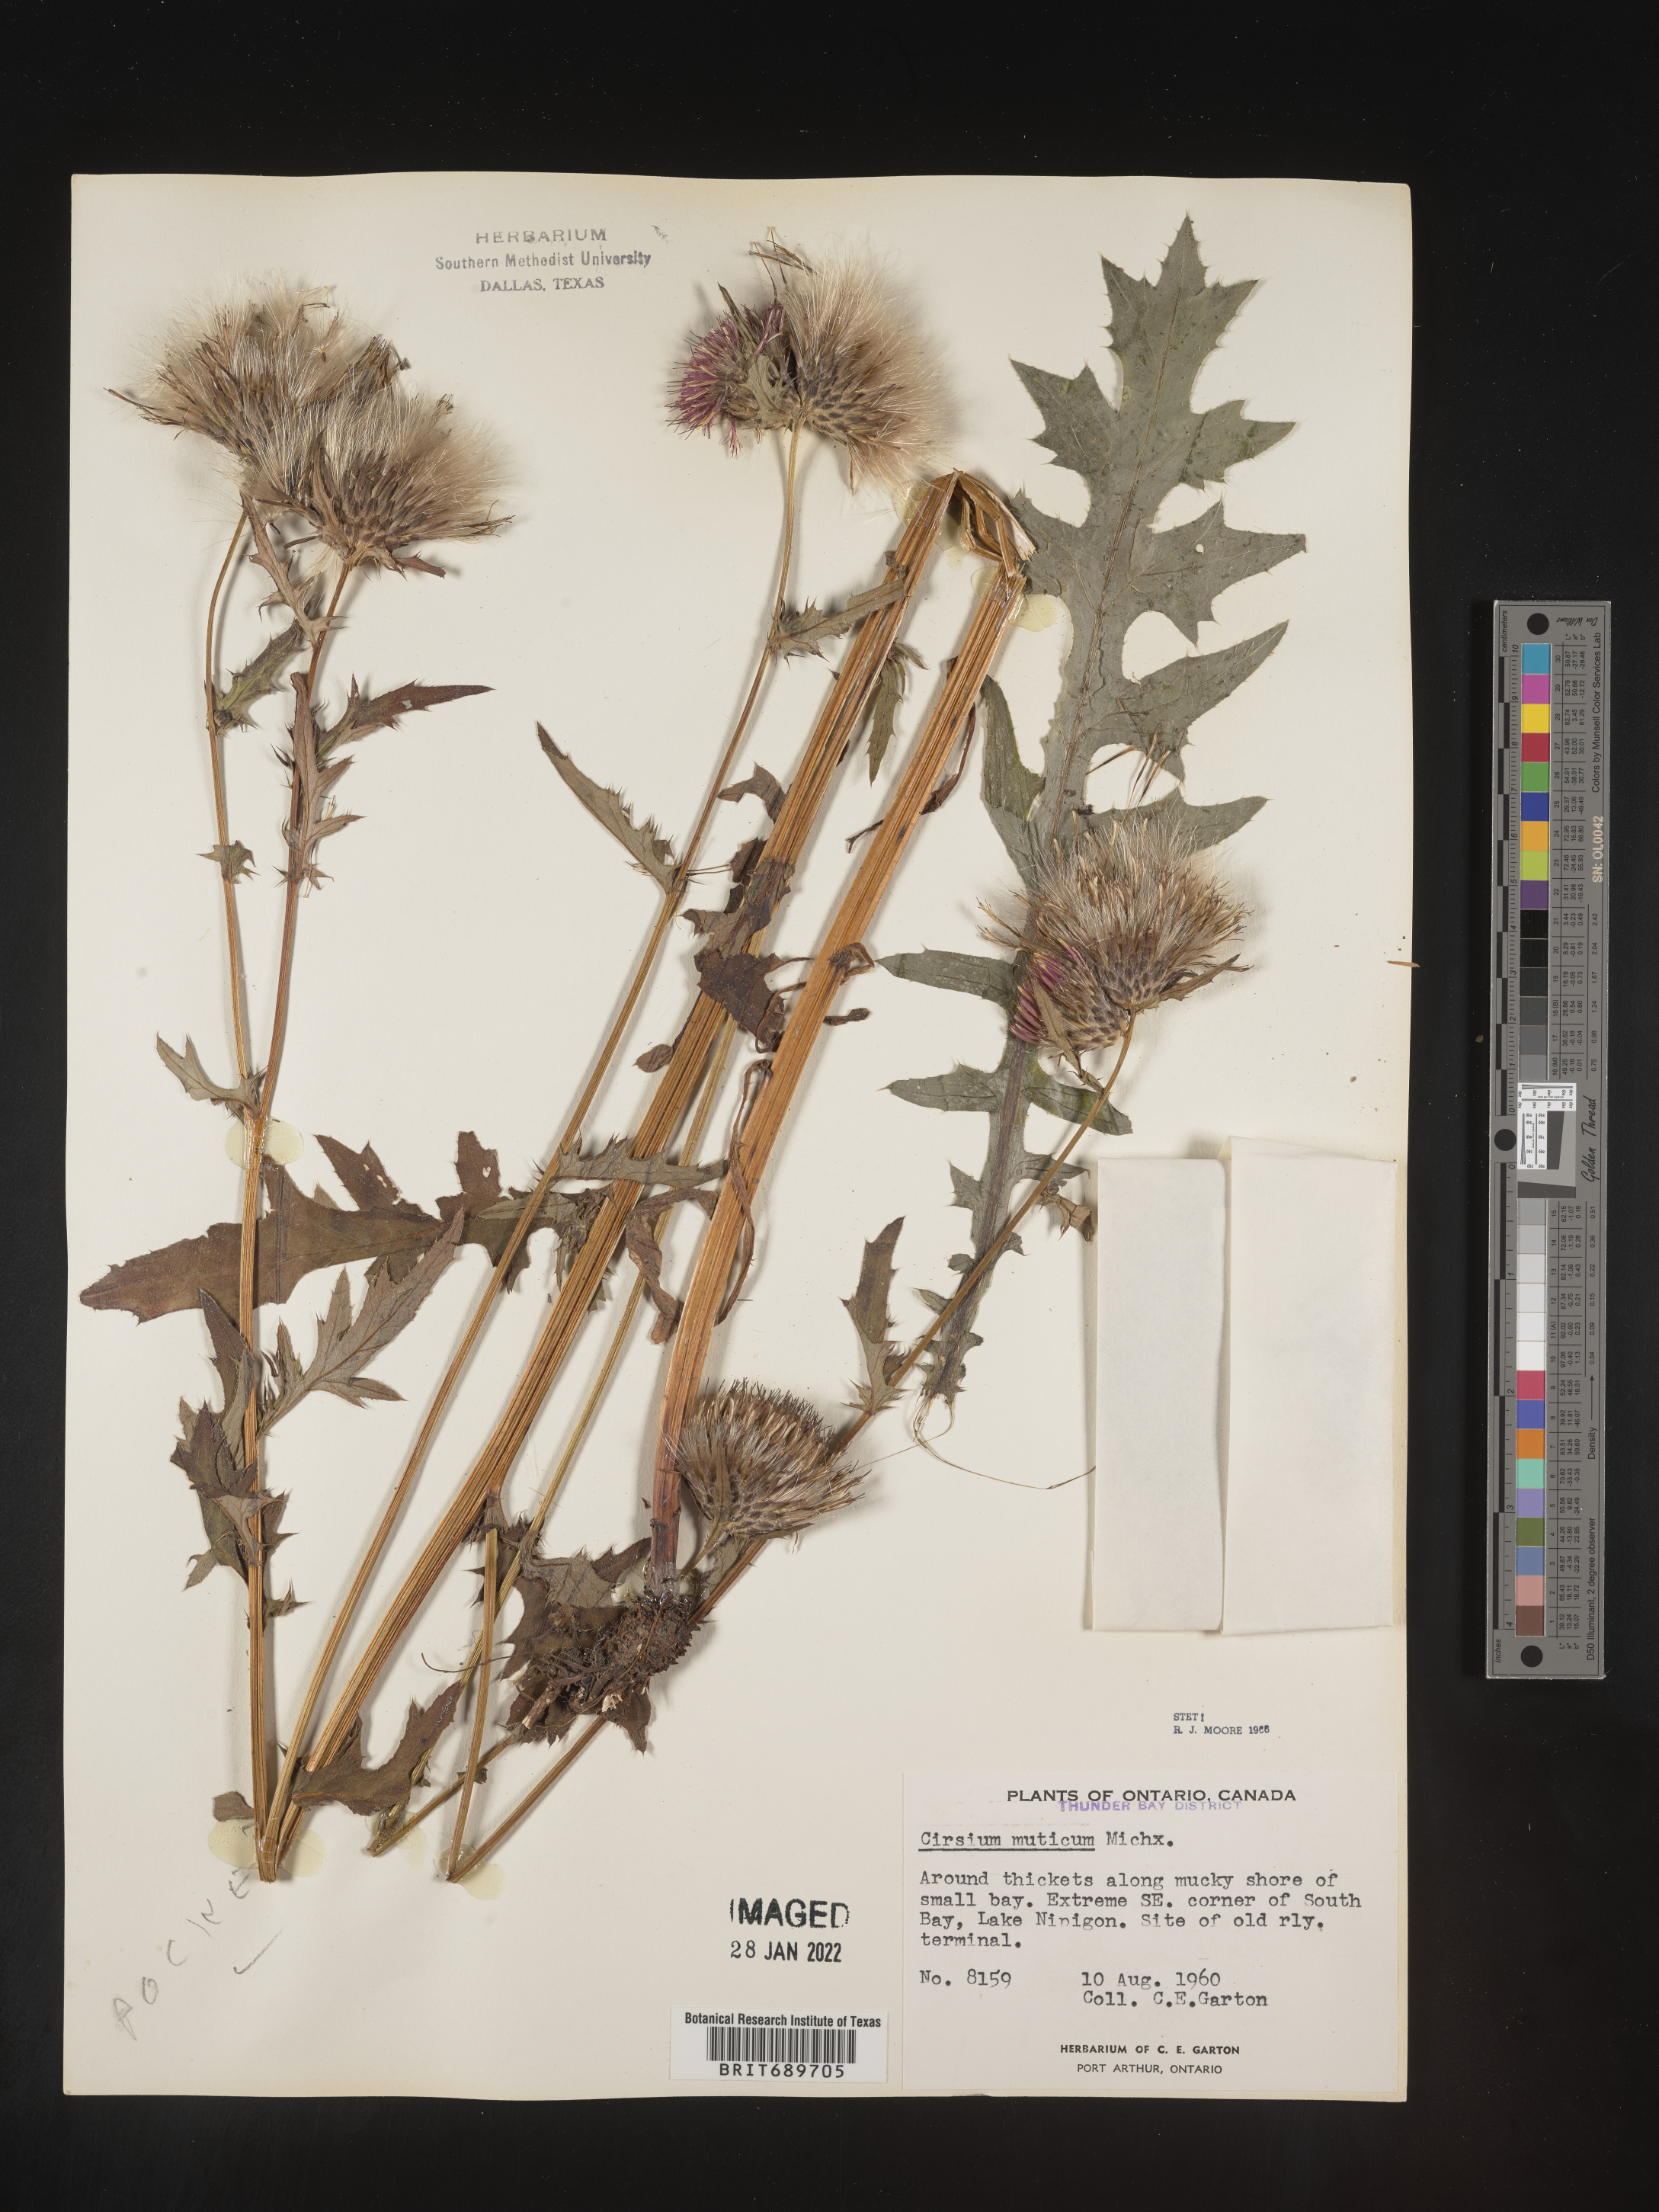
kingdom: Plantae
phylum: Tracheophyta
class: Magnoliopsida
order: Asterales
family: Asteraceae
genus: Cirsium
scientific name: Cirsium muticum
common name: Dunce-nettle
